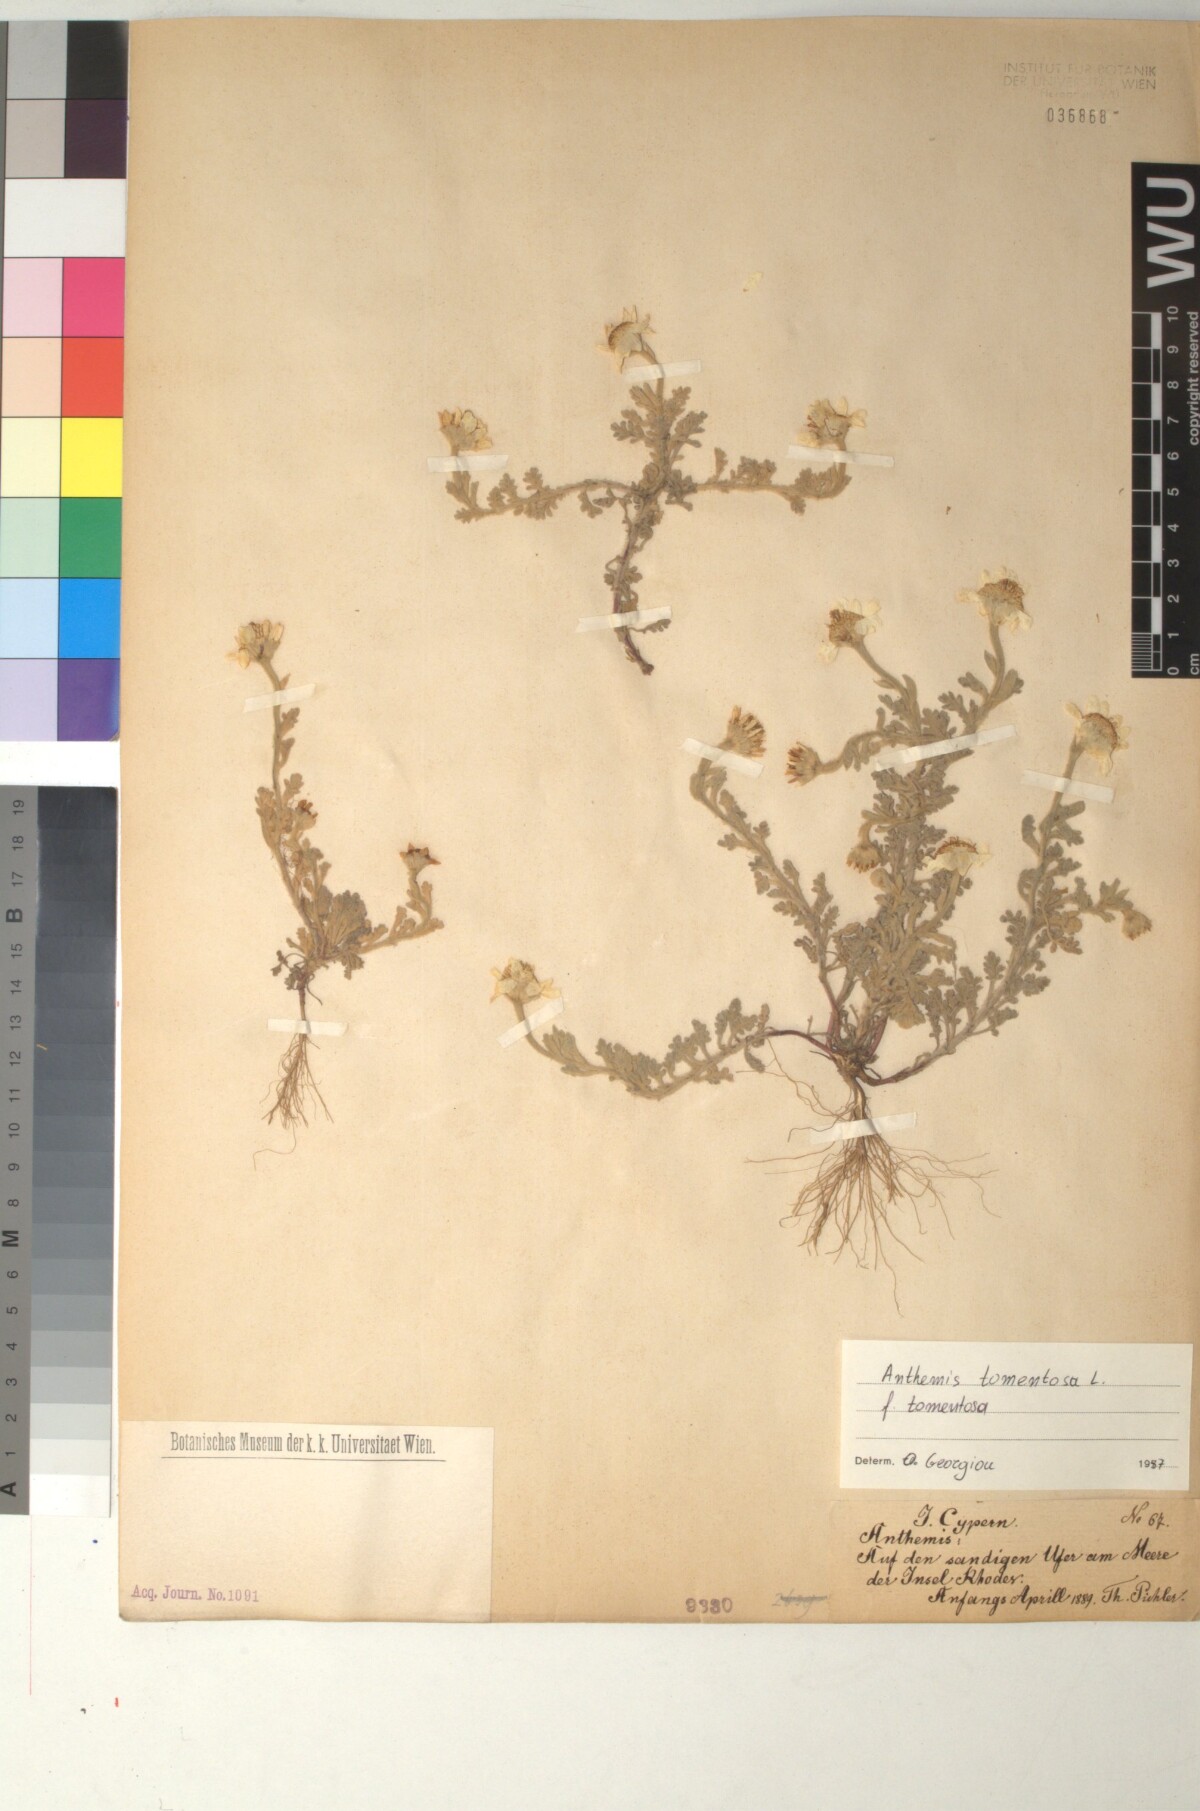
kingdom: Plantae
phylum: Tracheophyta
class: Magnoliopsida
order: Asterales
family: Asteraceae
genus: Anthemis
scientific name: Anthemis tomentosa
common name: Woolly chamomile
